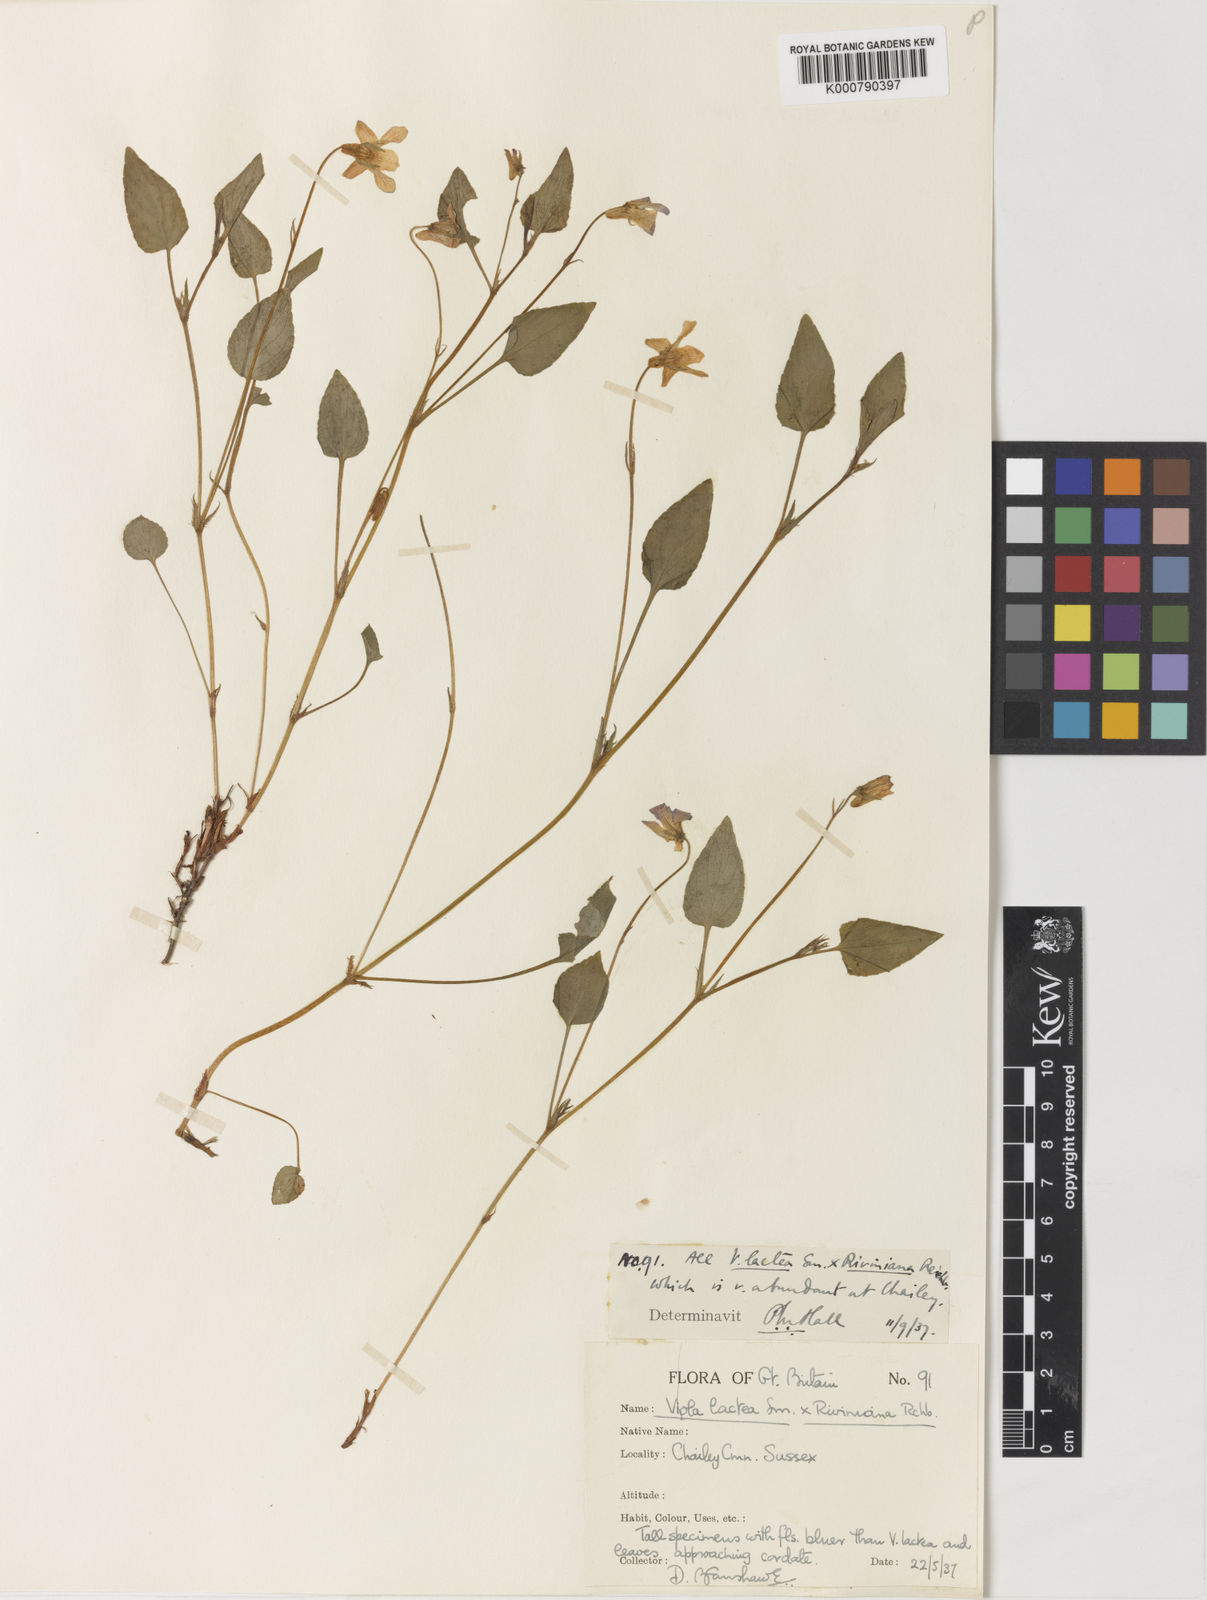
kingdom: Plantae
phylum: Tracheophyta
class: Magnoliopsida
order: Malpighiales
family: Violaceae
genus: Viola
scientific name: Viola lactea
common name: Pale dog-violet
